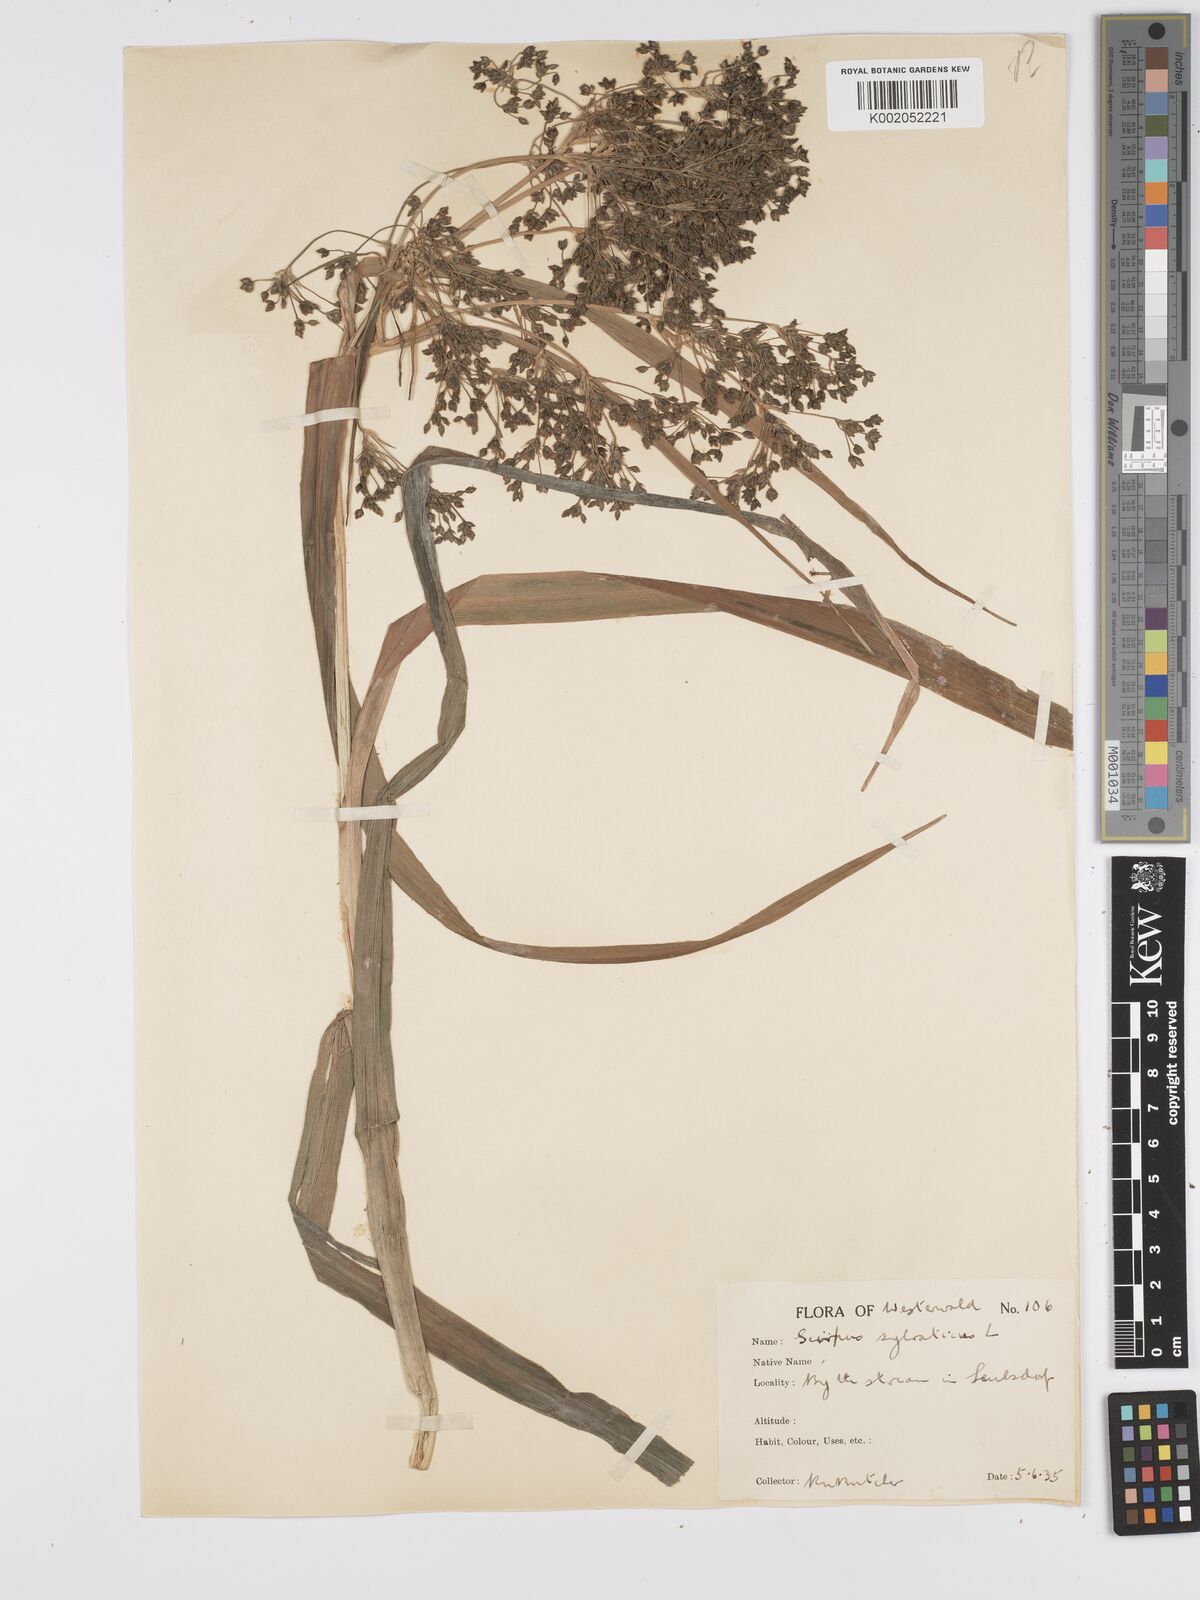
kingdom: Plantae
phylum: Tracheophyta
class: Liliopsida
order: Poales
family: Cyperaceae
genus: Scirpus
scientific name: Scirpus sylvaticus
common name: Wood club-rush
